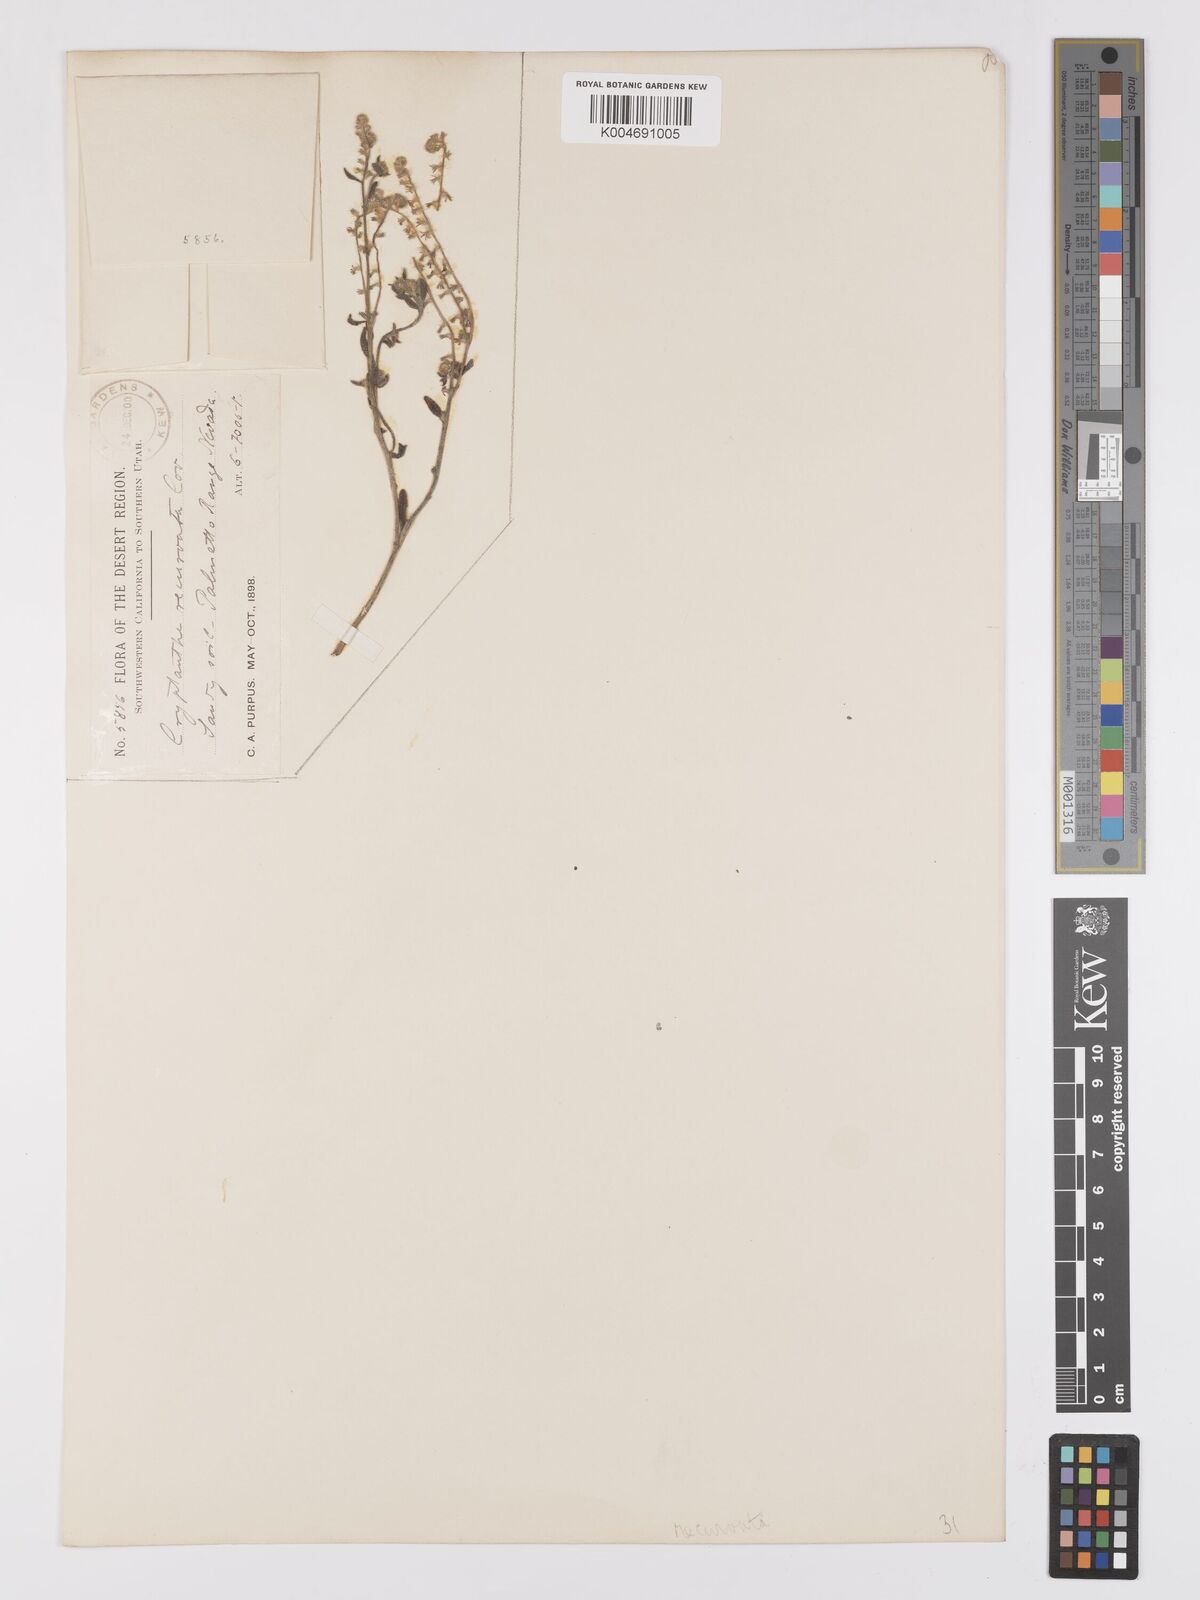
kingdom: Plantae
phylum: Tracheophyta
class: Magnoliopsida
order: Boraginales
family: Boraginaceae
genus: Cryptantha
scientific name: Cryptantha recurvata
